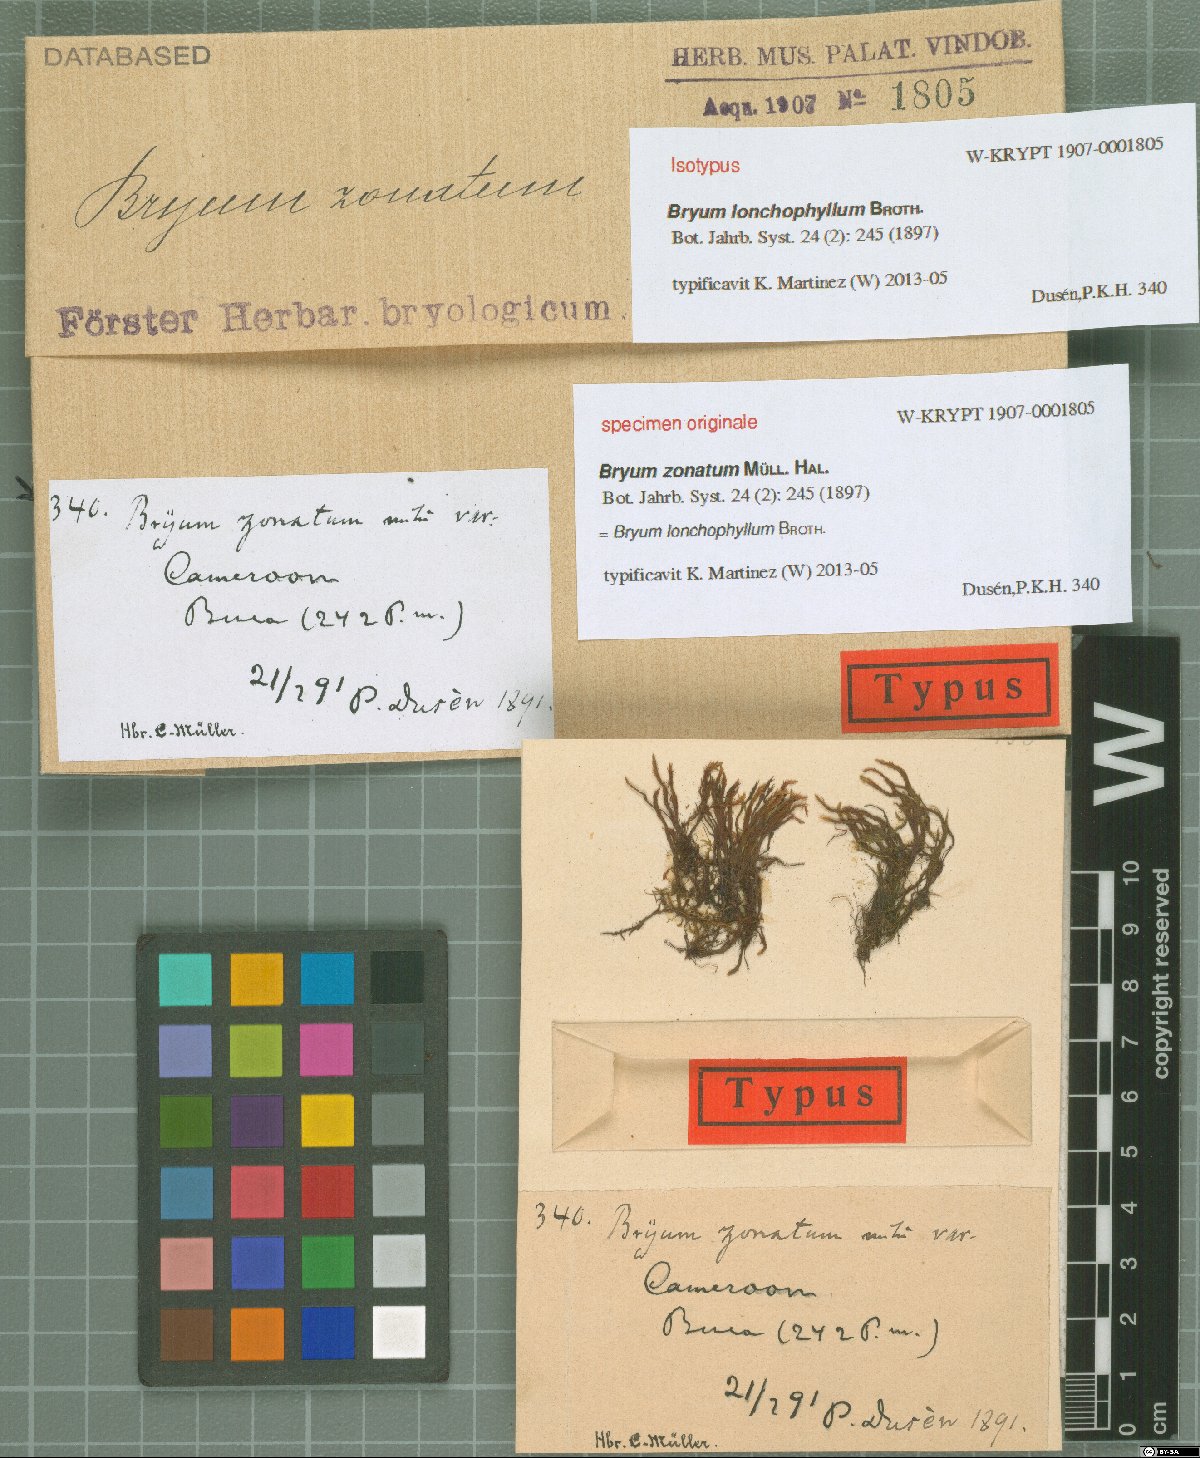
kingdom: Plantae
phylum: Bryophyta
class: Bryopsida
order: Bryales
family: Bryaceae
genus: Bryum
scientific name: Bryum lonchophyllum
